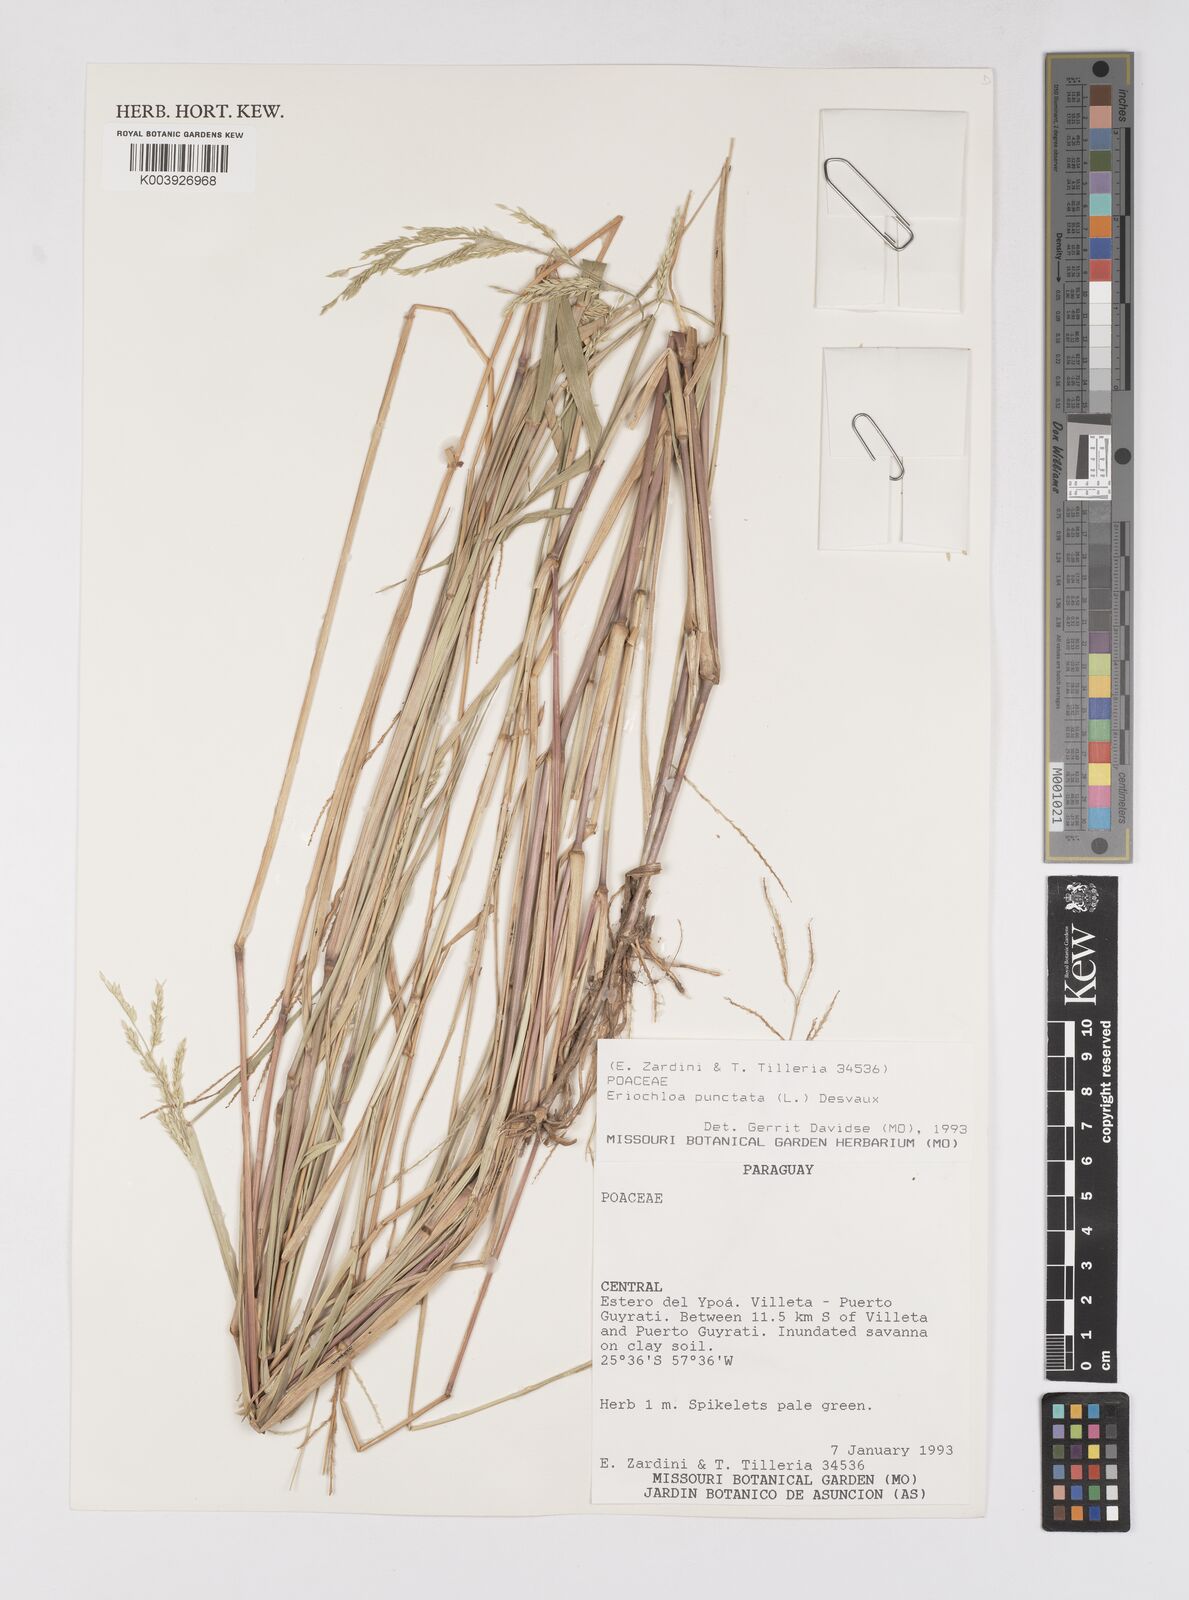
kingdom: Plantae
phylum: Tracheophyta
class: Liliopsida
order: Poales
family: Poaceae
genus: Eriochloa
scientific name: Eriochloa punctata
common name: Louisiana cupgrass
